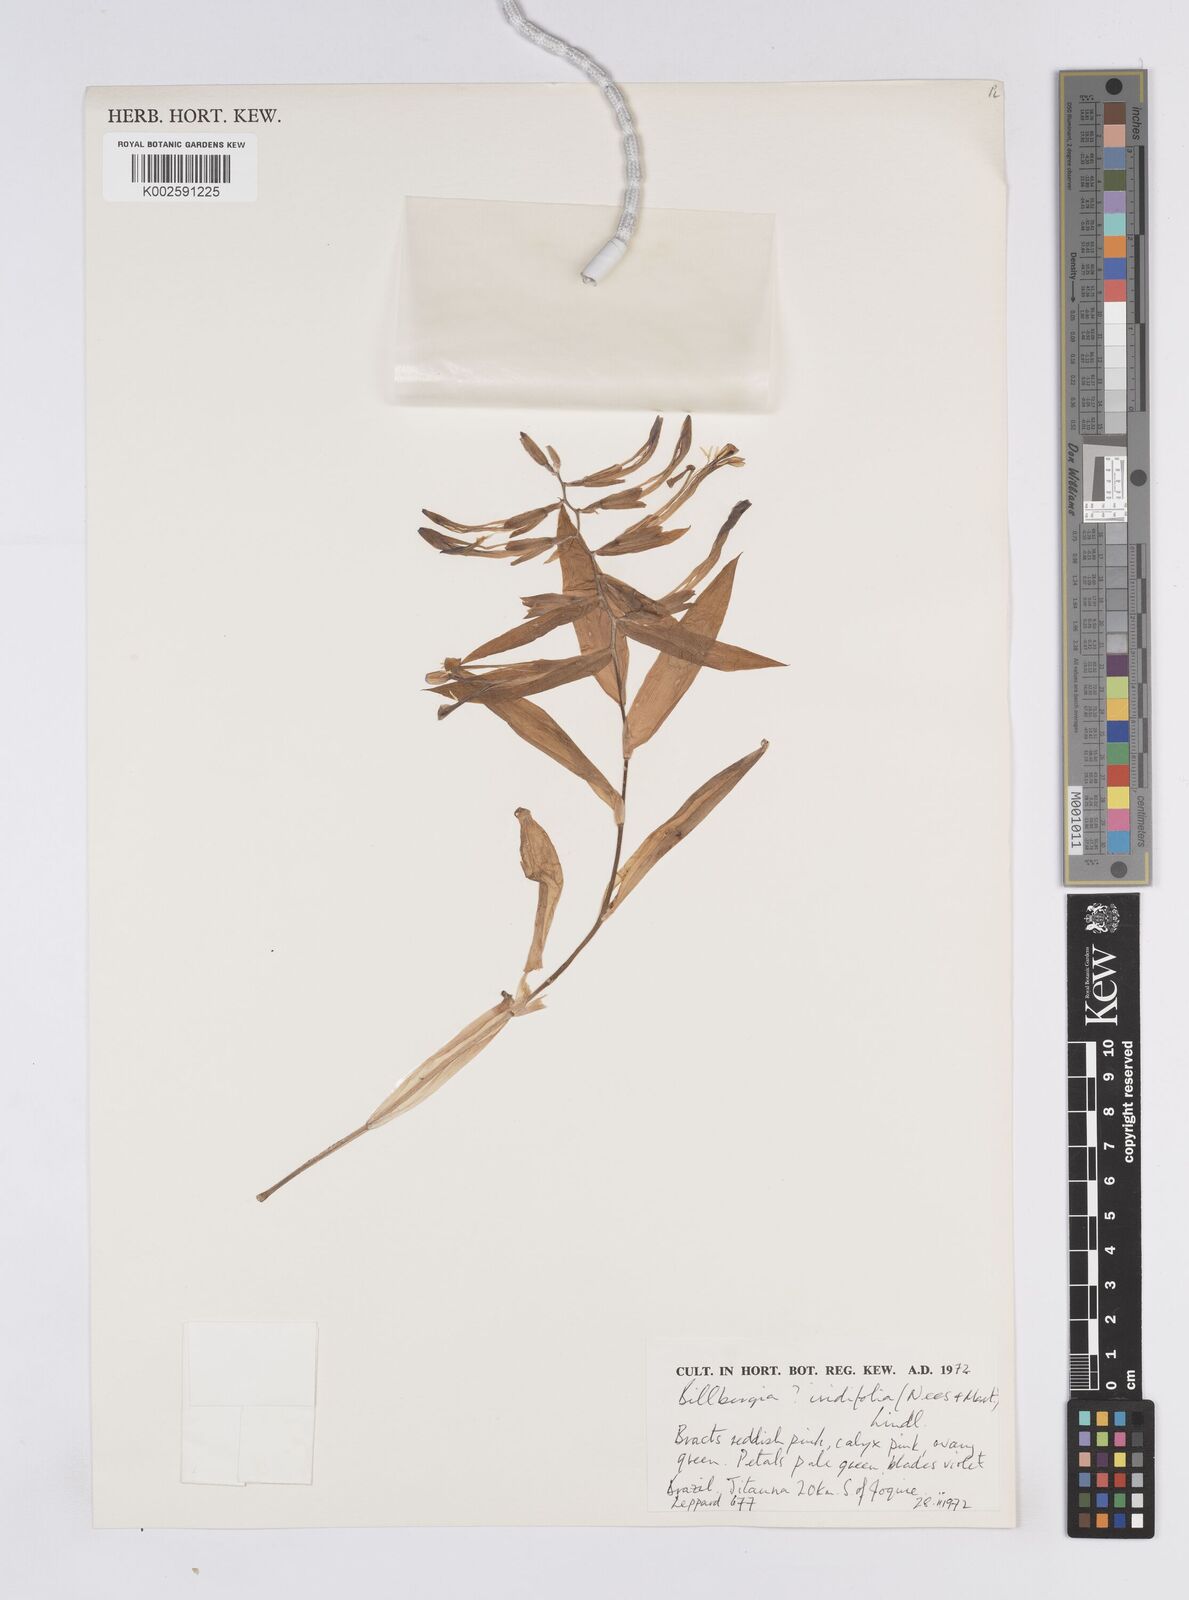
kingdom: Plantae
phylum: Tracheophyta
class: Liliopsida
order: Poales
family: Bromeliaceae
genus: Billbergia
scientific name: Billbergia iridifolia
